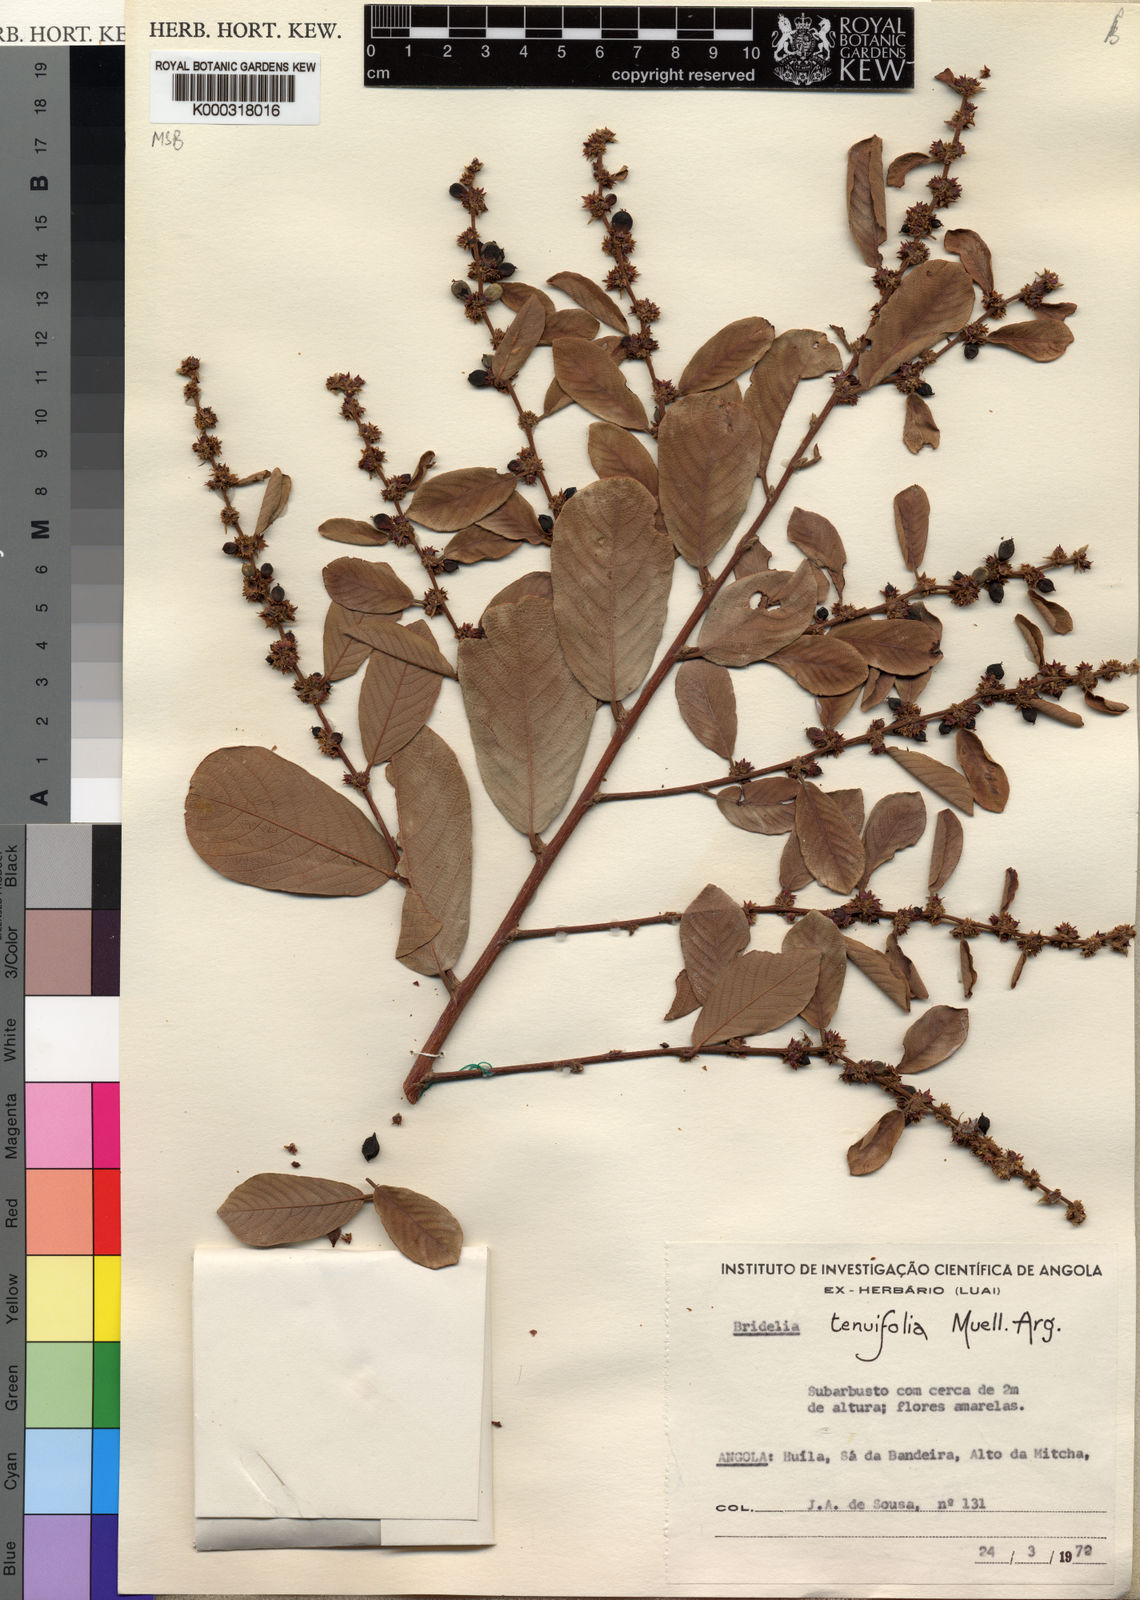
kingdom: Plantae
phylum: Tracheophyta
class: Magnoliopsida
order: Malpighiales
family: Phyllanthaceae
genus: Bridelia
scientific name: Bridelia
